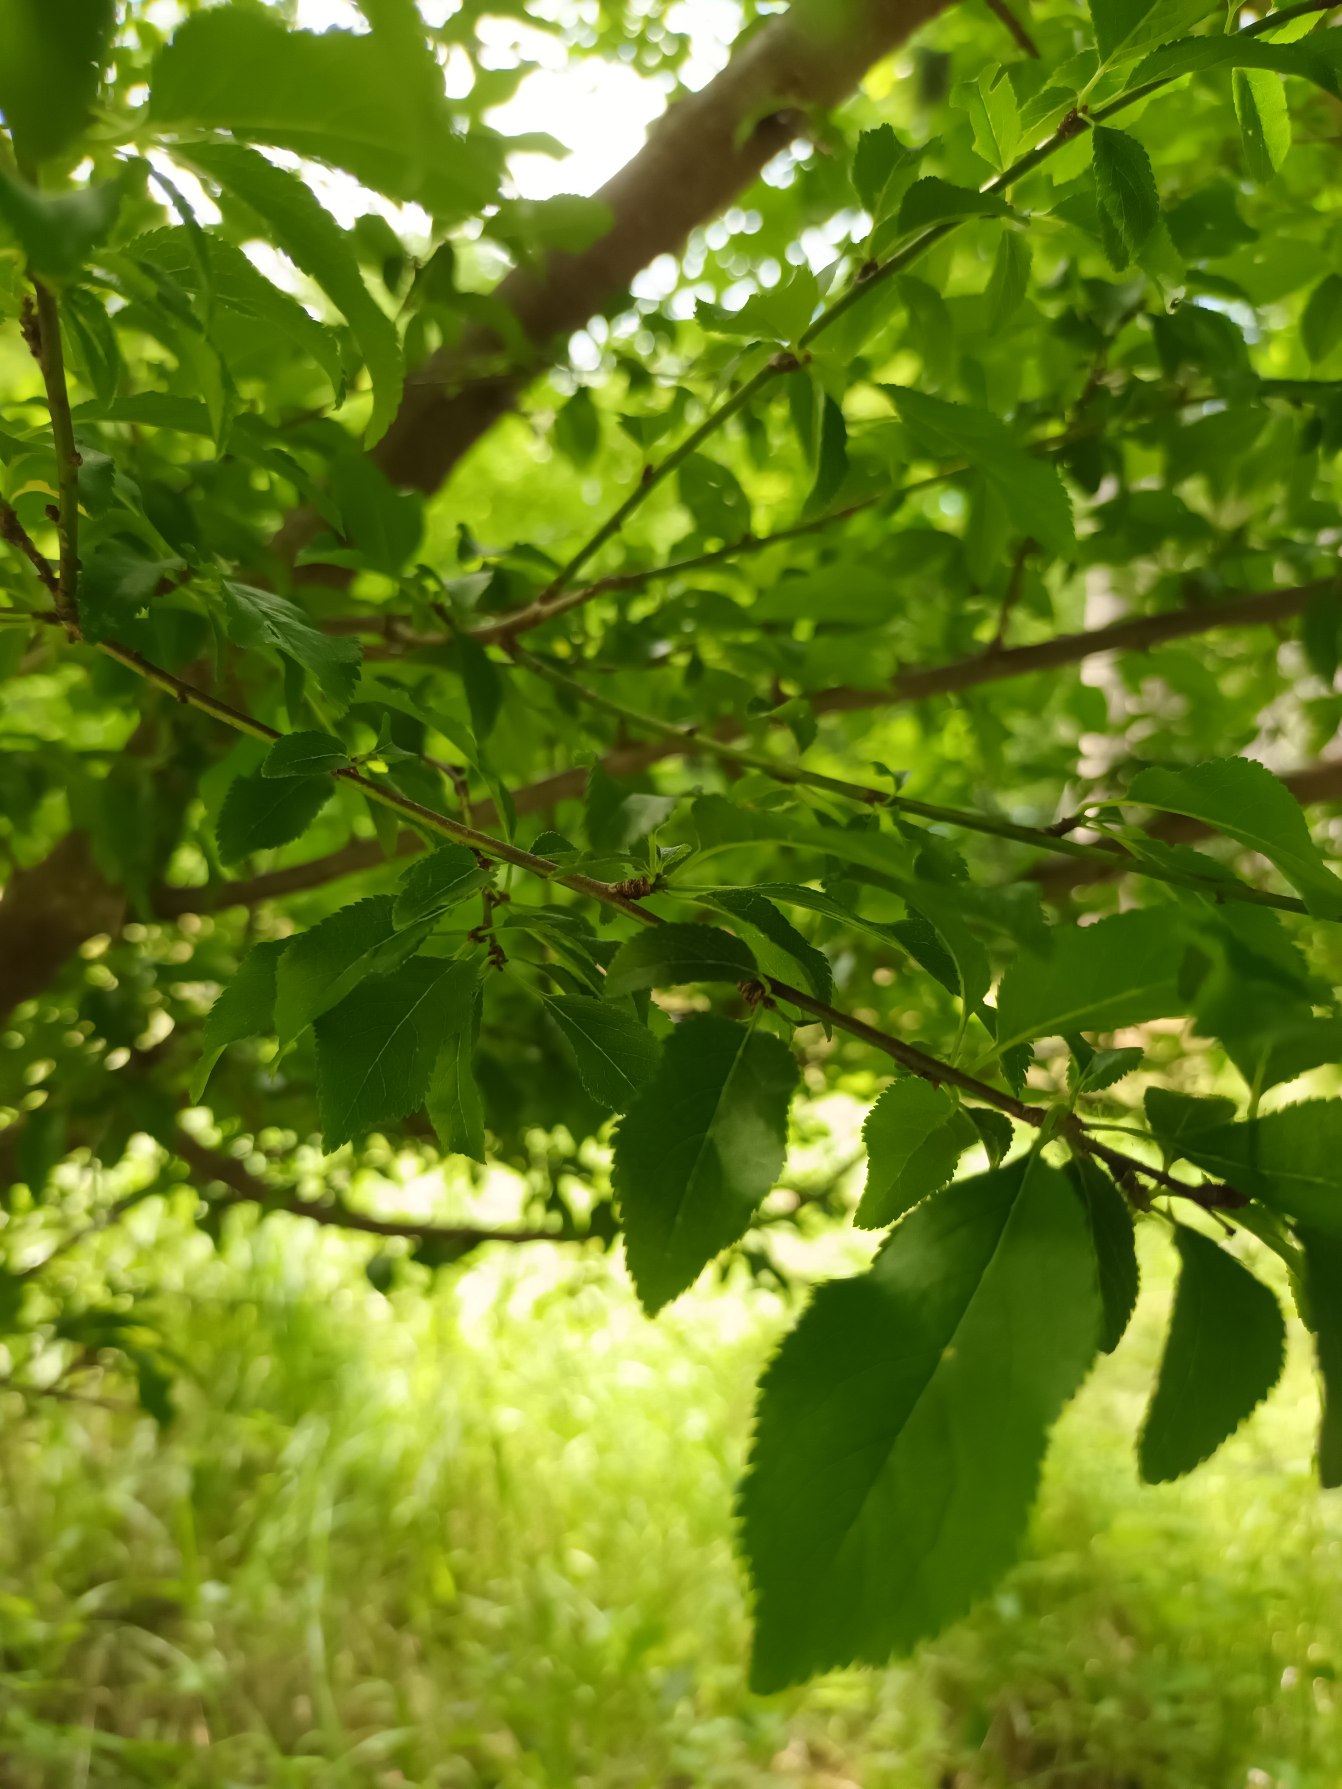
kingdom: Plantae
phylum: Tracheophyta
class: Magnoliopsida
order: Rosales
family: Rosaceae
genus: Prunus
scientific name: Prunus cerasifera
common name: Mirabel
